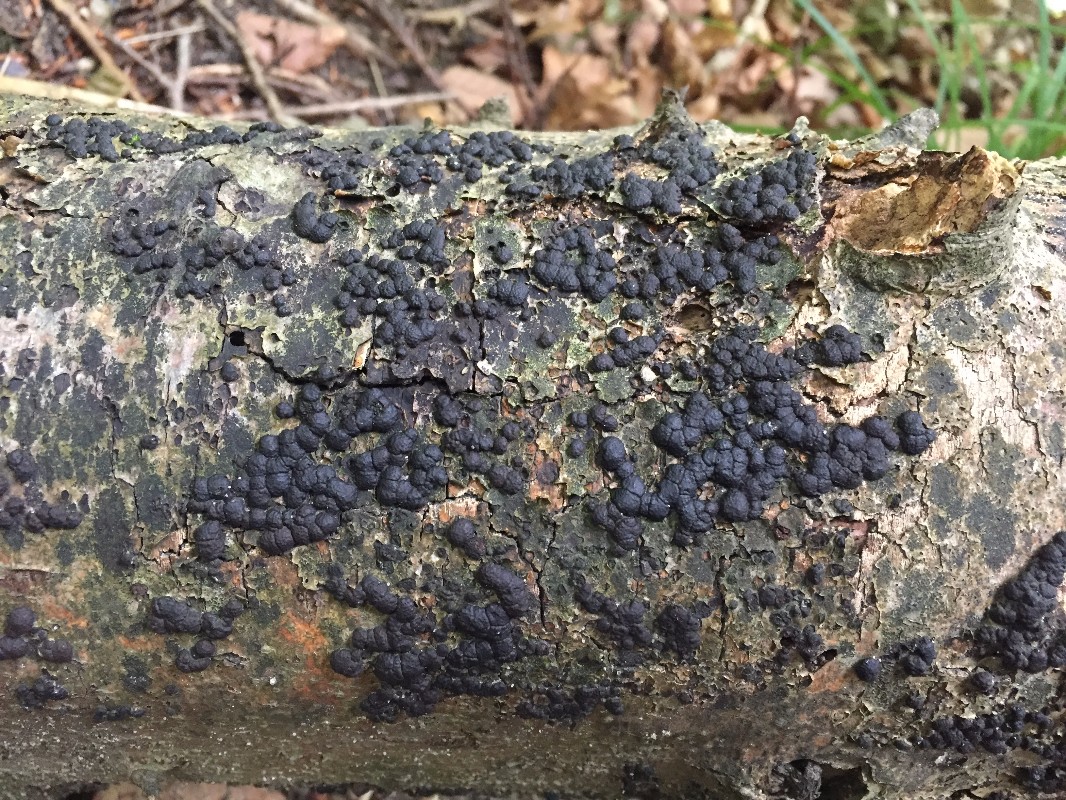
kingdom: Fungi
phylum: Ascomycota
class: Sordariomycetes
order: Xylariales
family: Hypoxylaceae
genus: Jackrogersella
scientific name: Jackrogersella cohaerens
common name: sammenflydende kulbær
